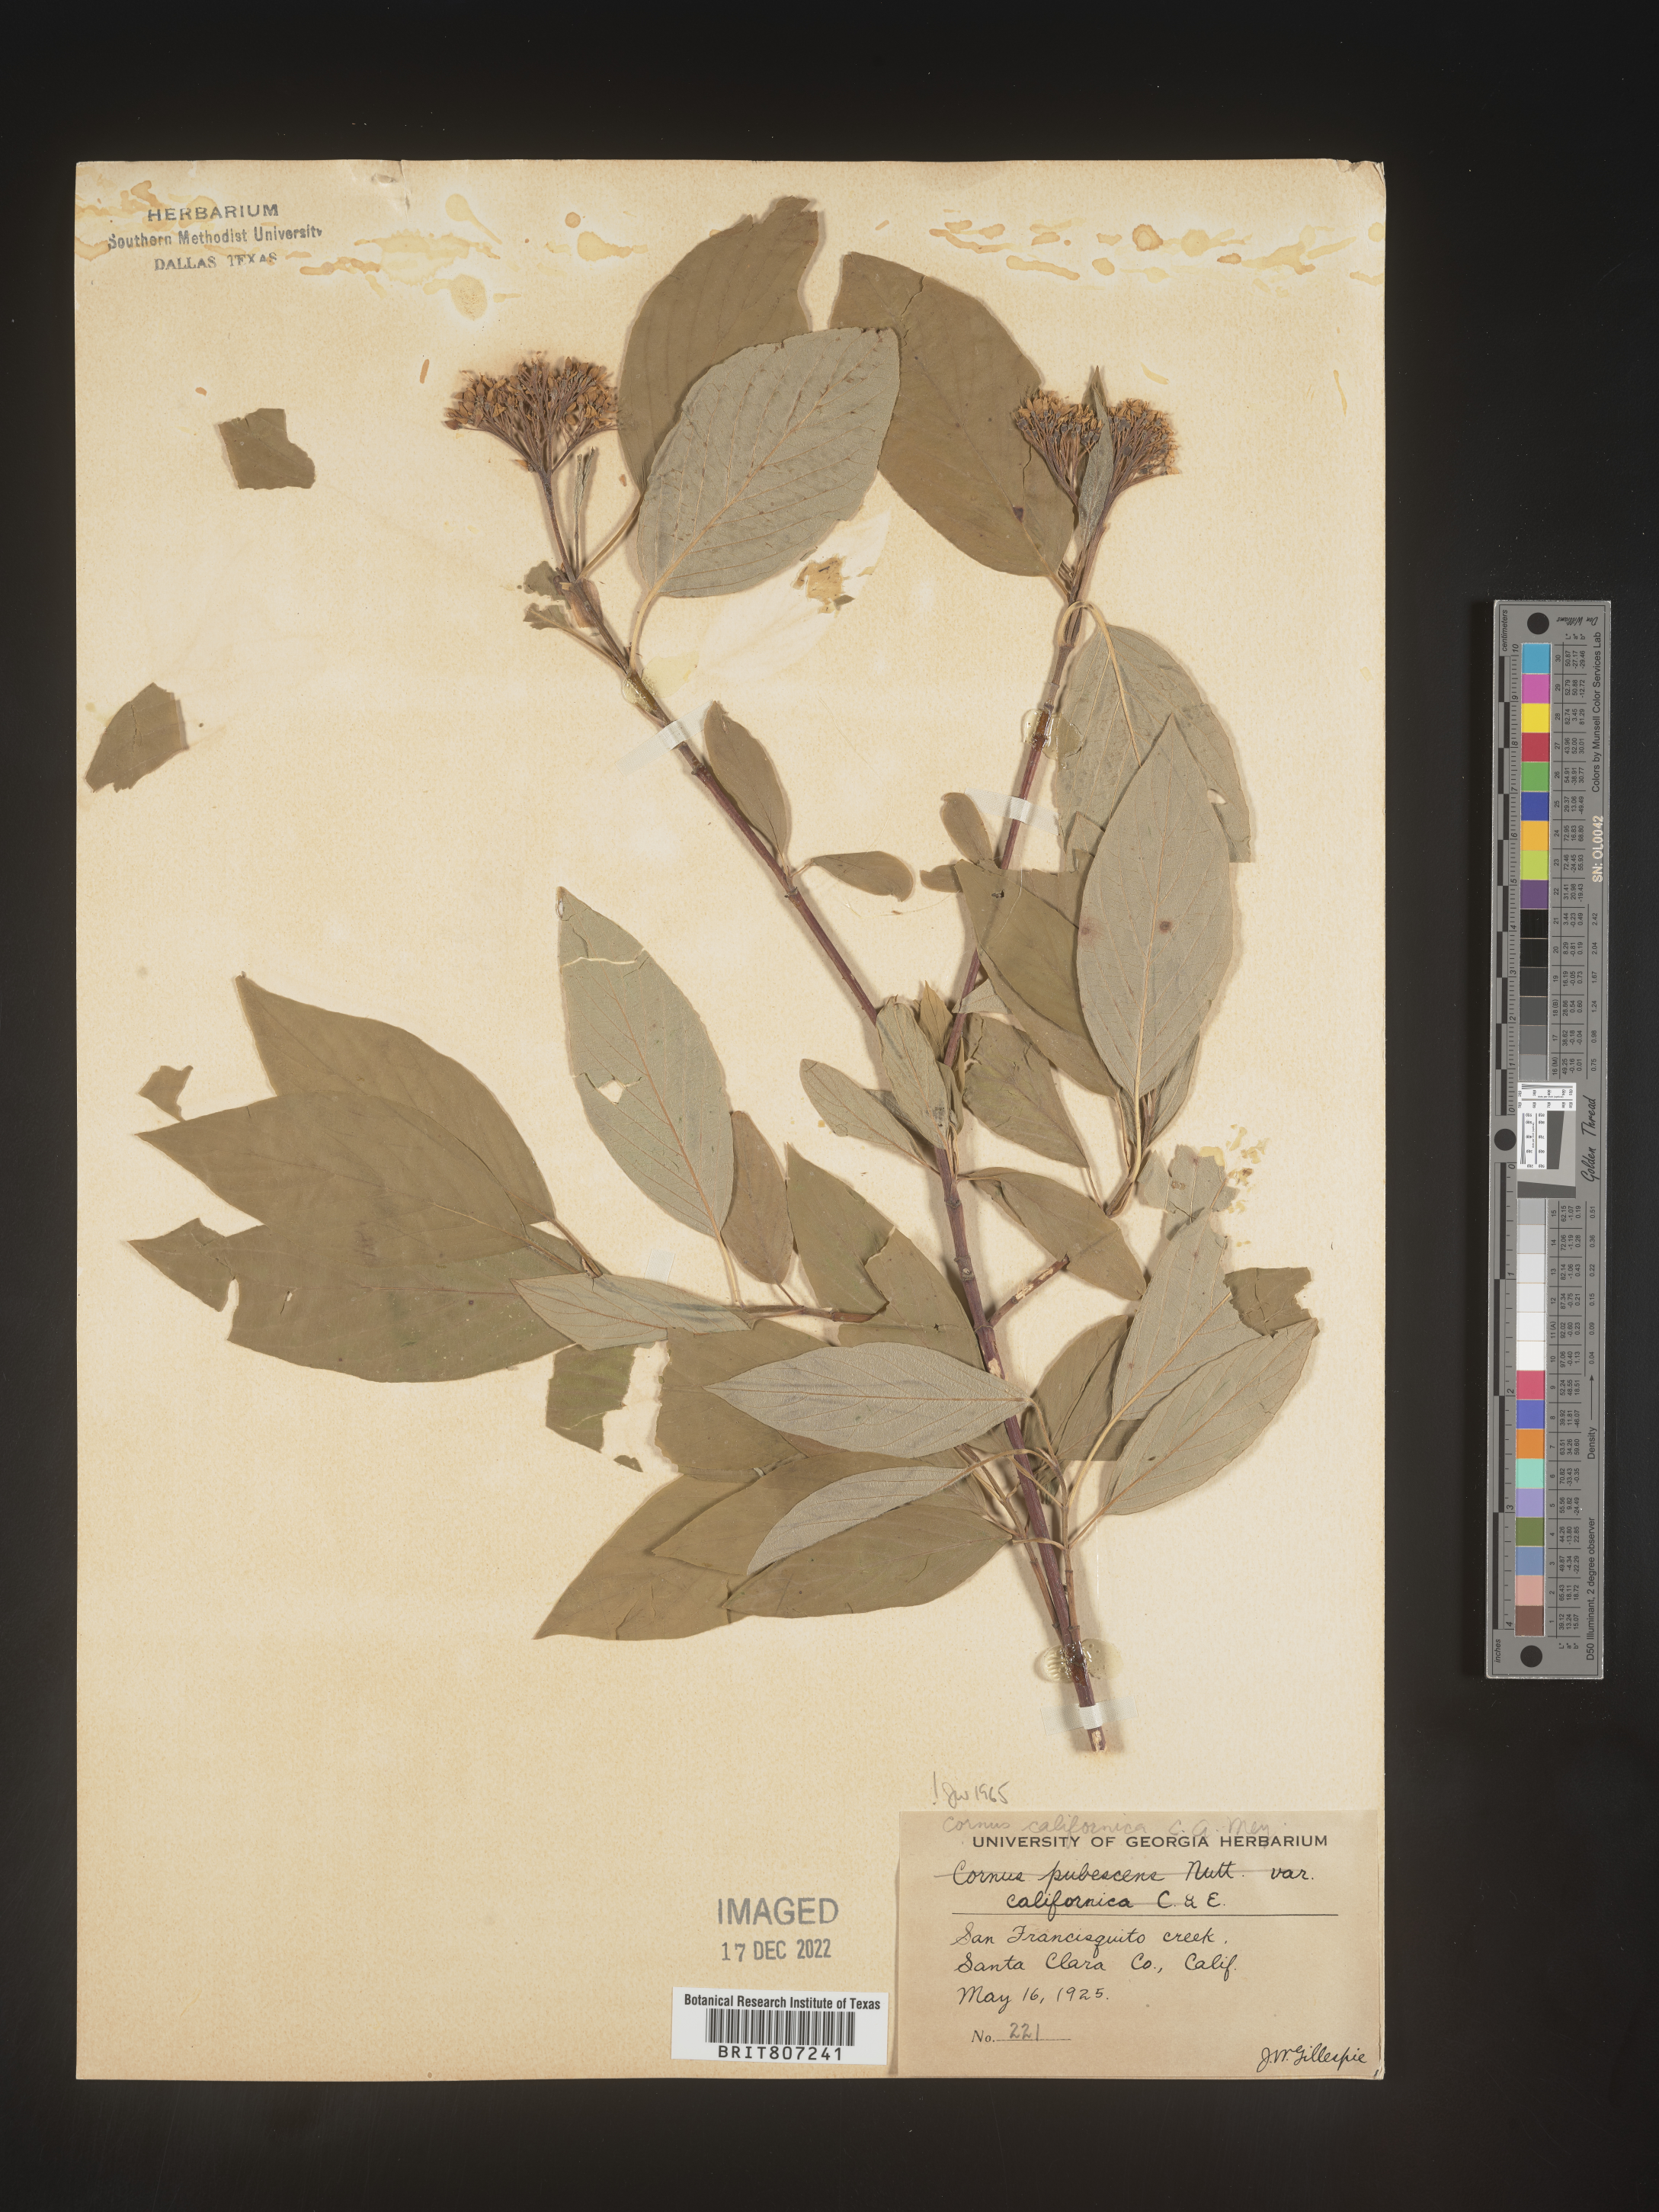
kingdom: Plantae
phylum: Tracheophyta
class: Magnoliopsida
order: Cornales
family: Cornaceae
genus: Cornus
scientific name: Cornus
